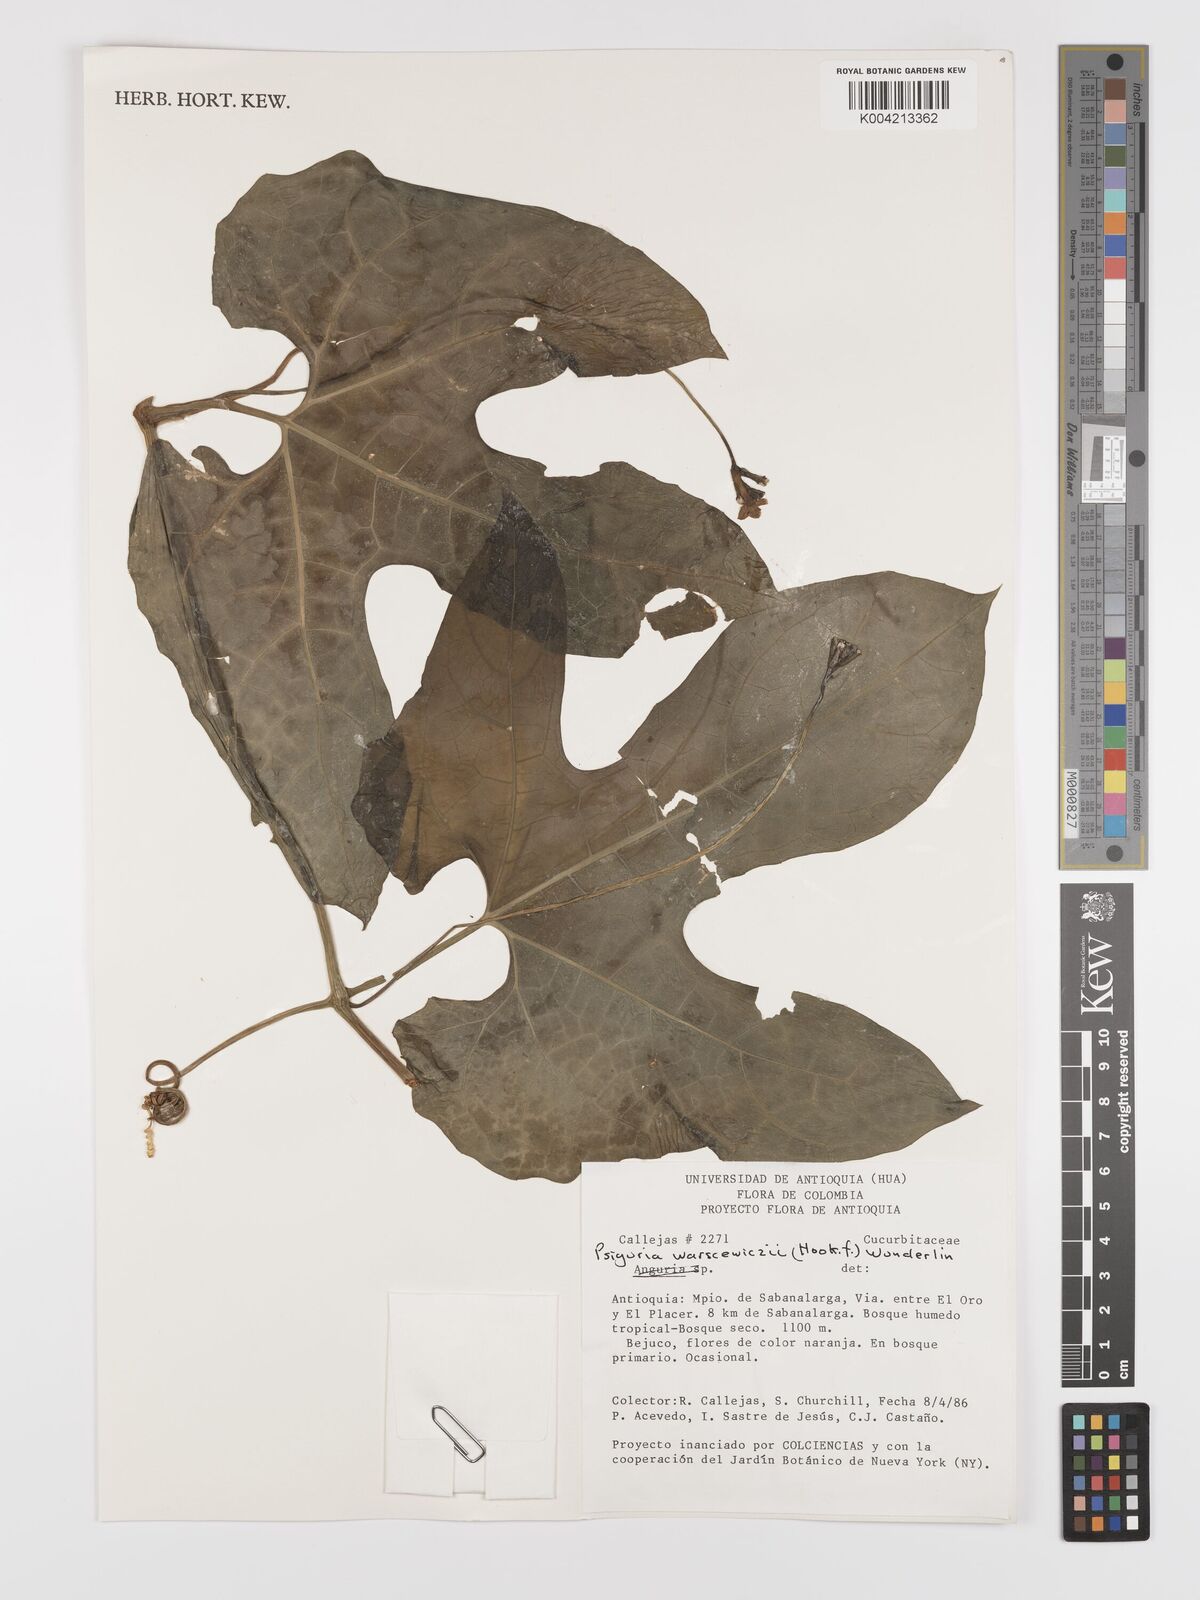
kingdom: Plantae
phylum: Tracheophyta
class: Magnoliopsida
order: Cucurbitales
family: Cucurbitaceae
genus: Psiguria
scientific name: Psiguria warscewiczii
